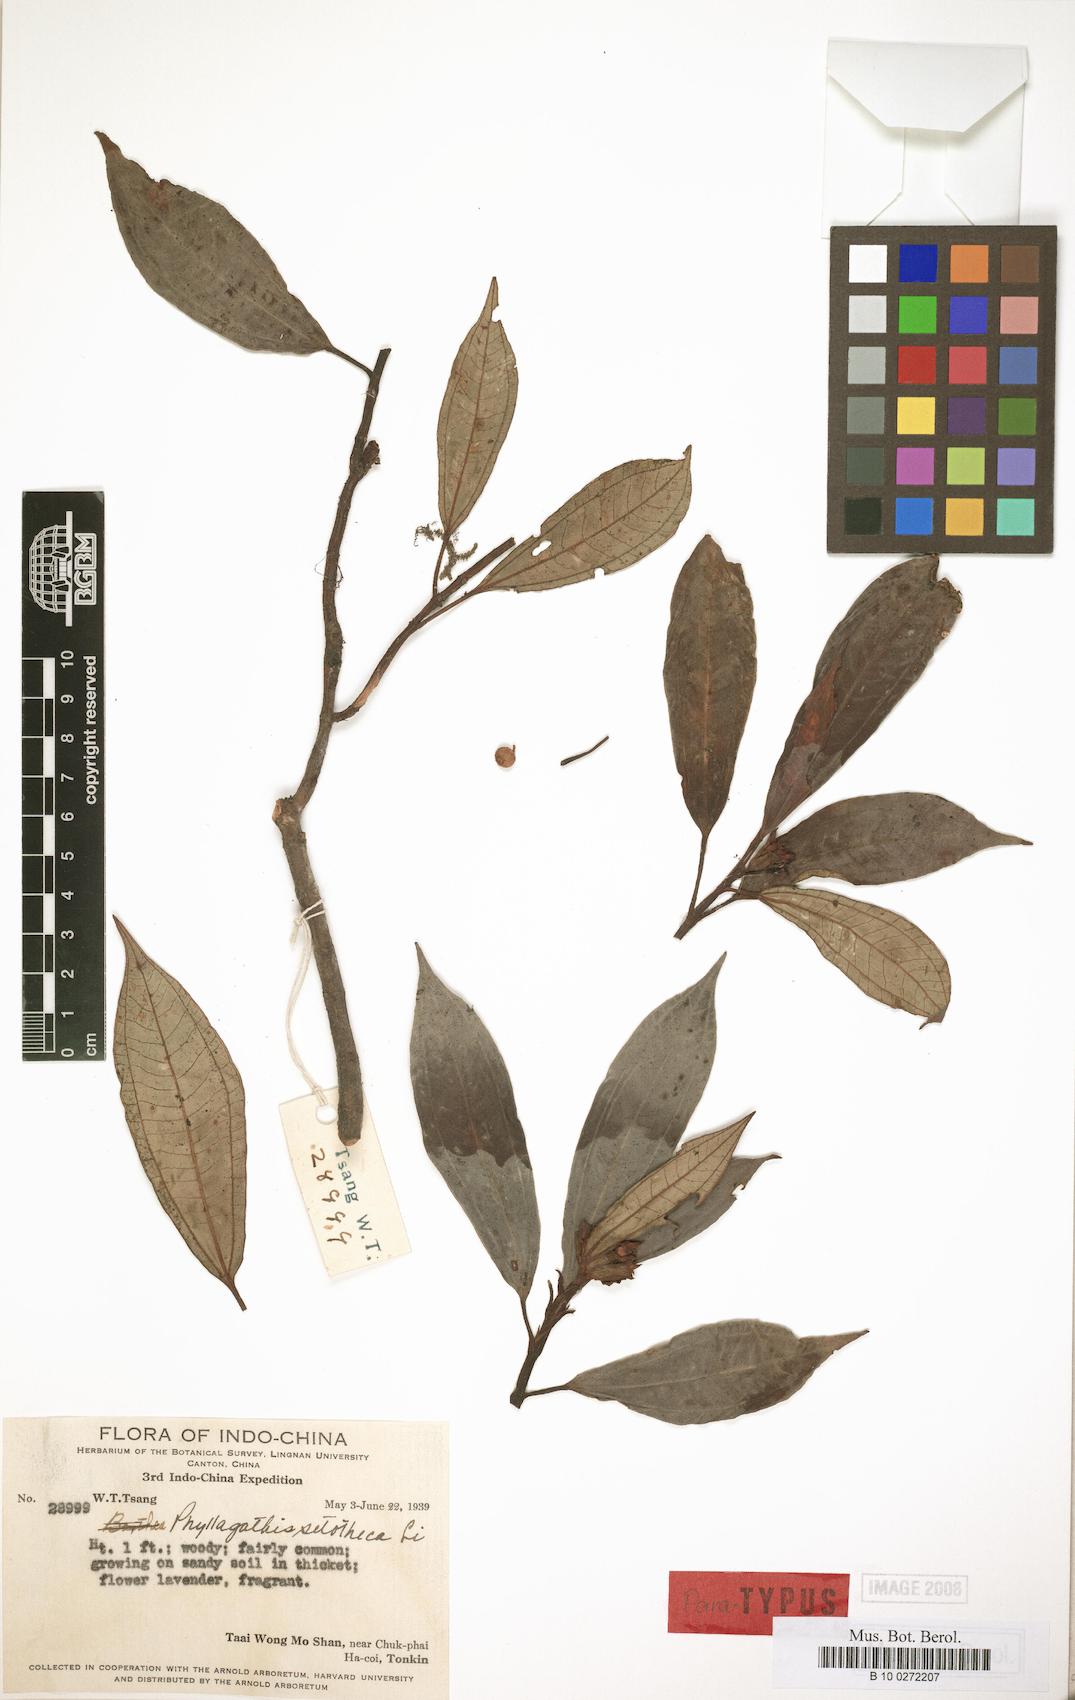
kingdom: Plantae
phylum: Tracheophyta
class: Magnoliopsida
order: Myrtales
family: Melastomataceae
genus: Phyllagathis
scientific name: Phyllagathis setotheca
